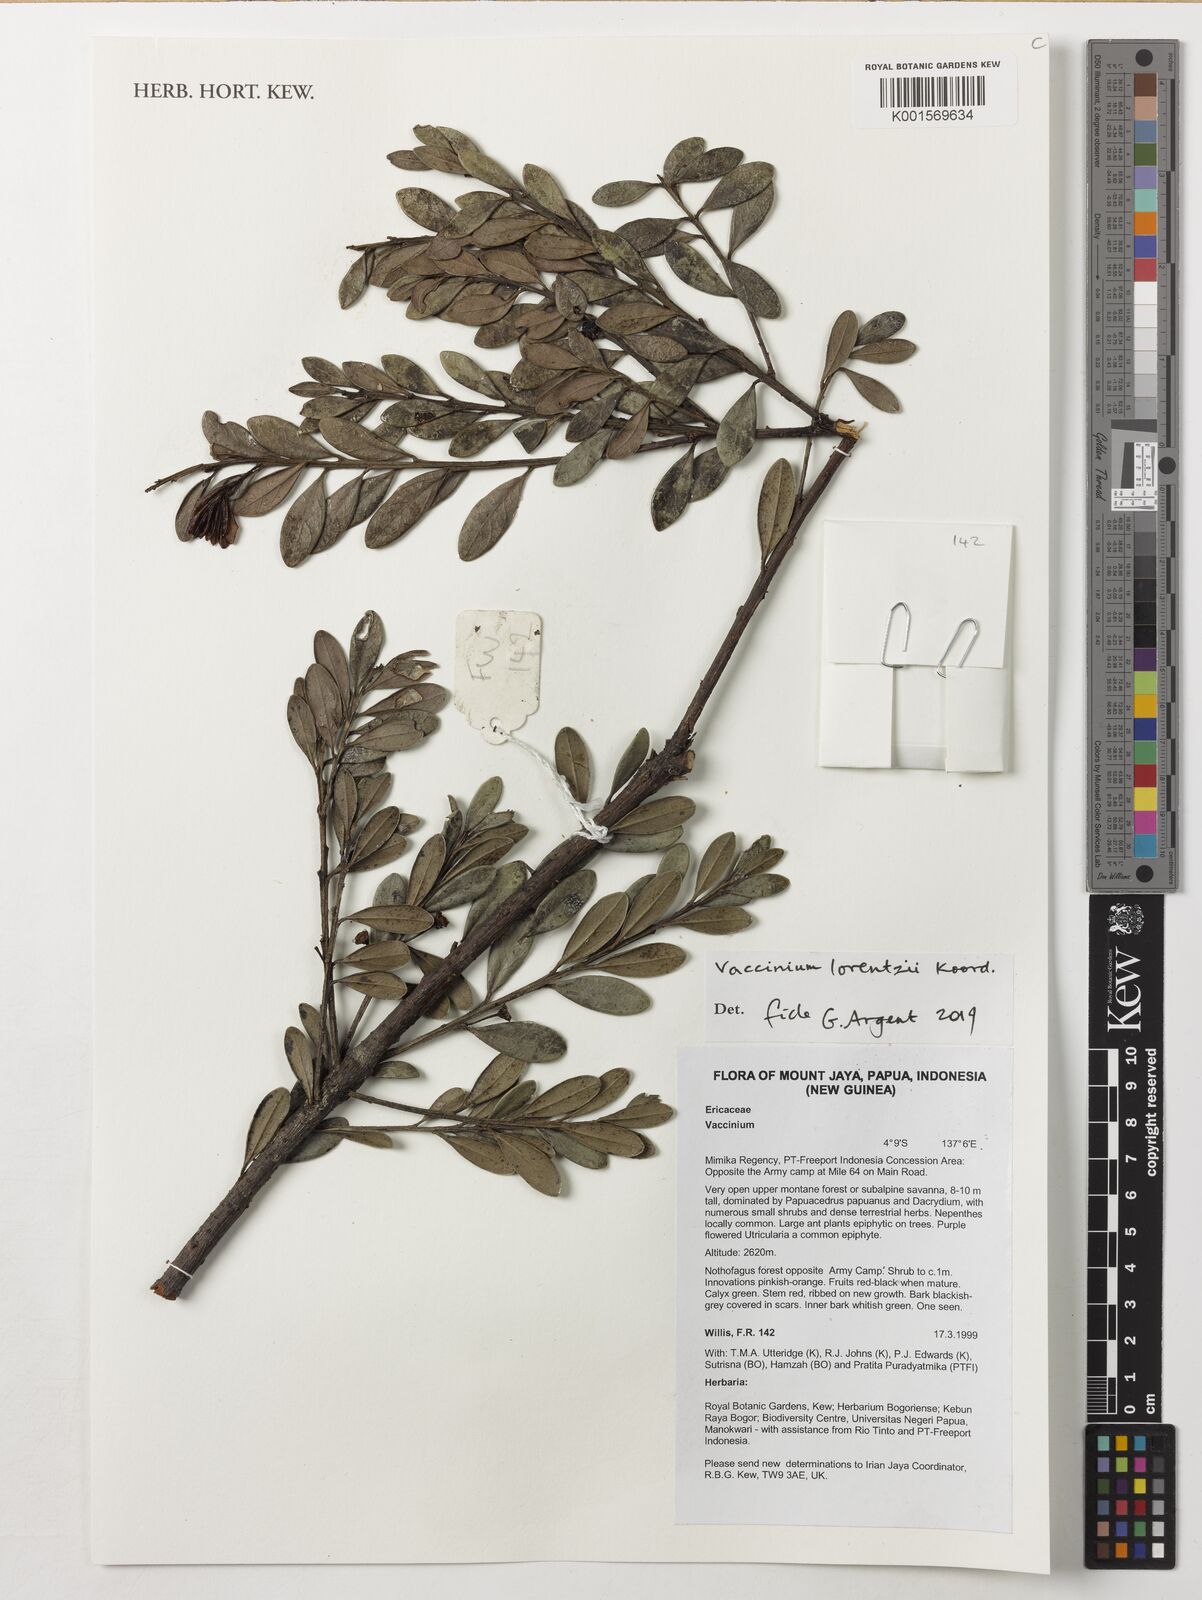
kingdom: Plantae
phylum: Tracheophyta
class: Magnoliopsida
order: Ericales
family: Ericaceae
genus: Vaccinium
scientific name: Vaccinium lorentzii
